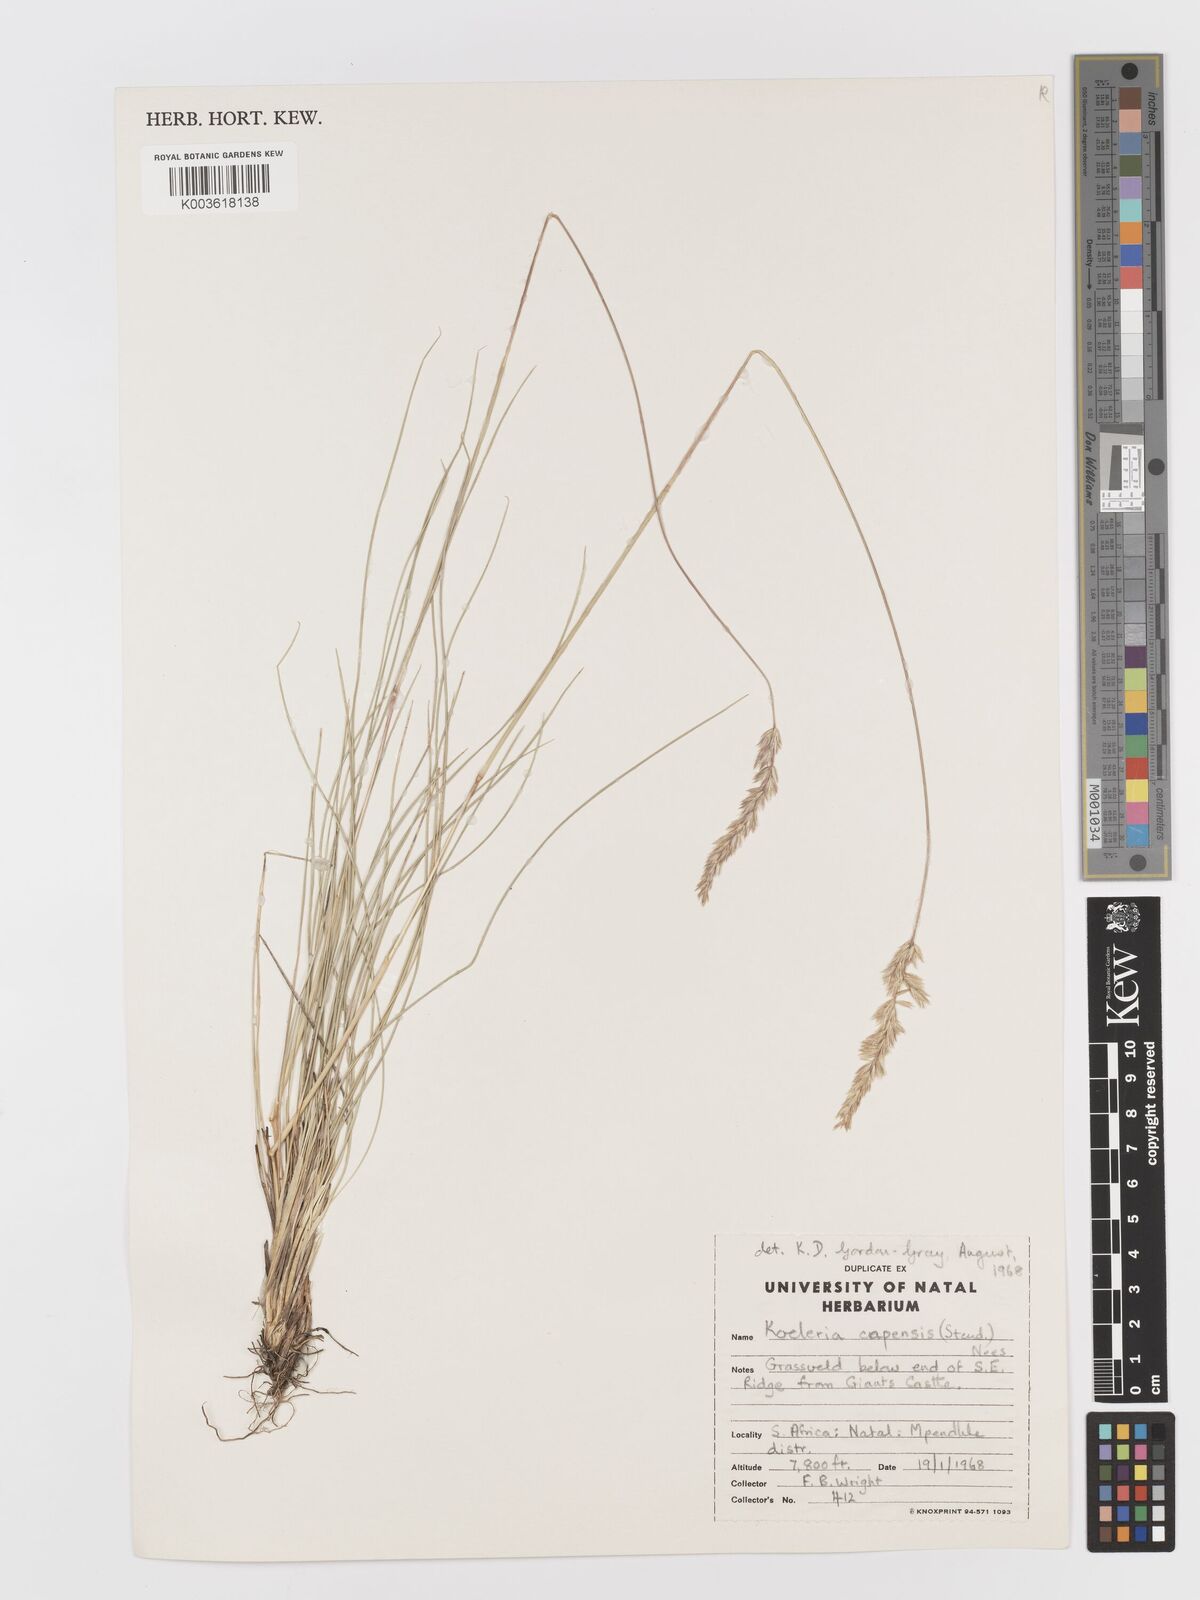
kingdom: Plantae
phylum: Tracheophyta
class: Liliopsida
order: Poales
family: Poaceae
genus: Koeleria
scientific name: Koeleria capensis
